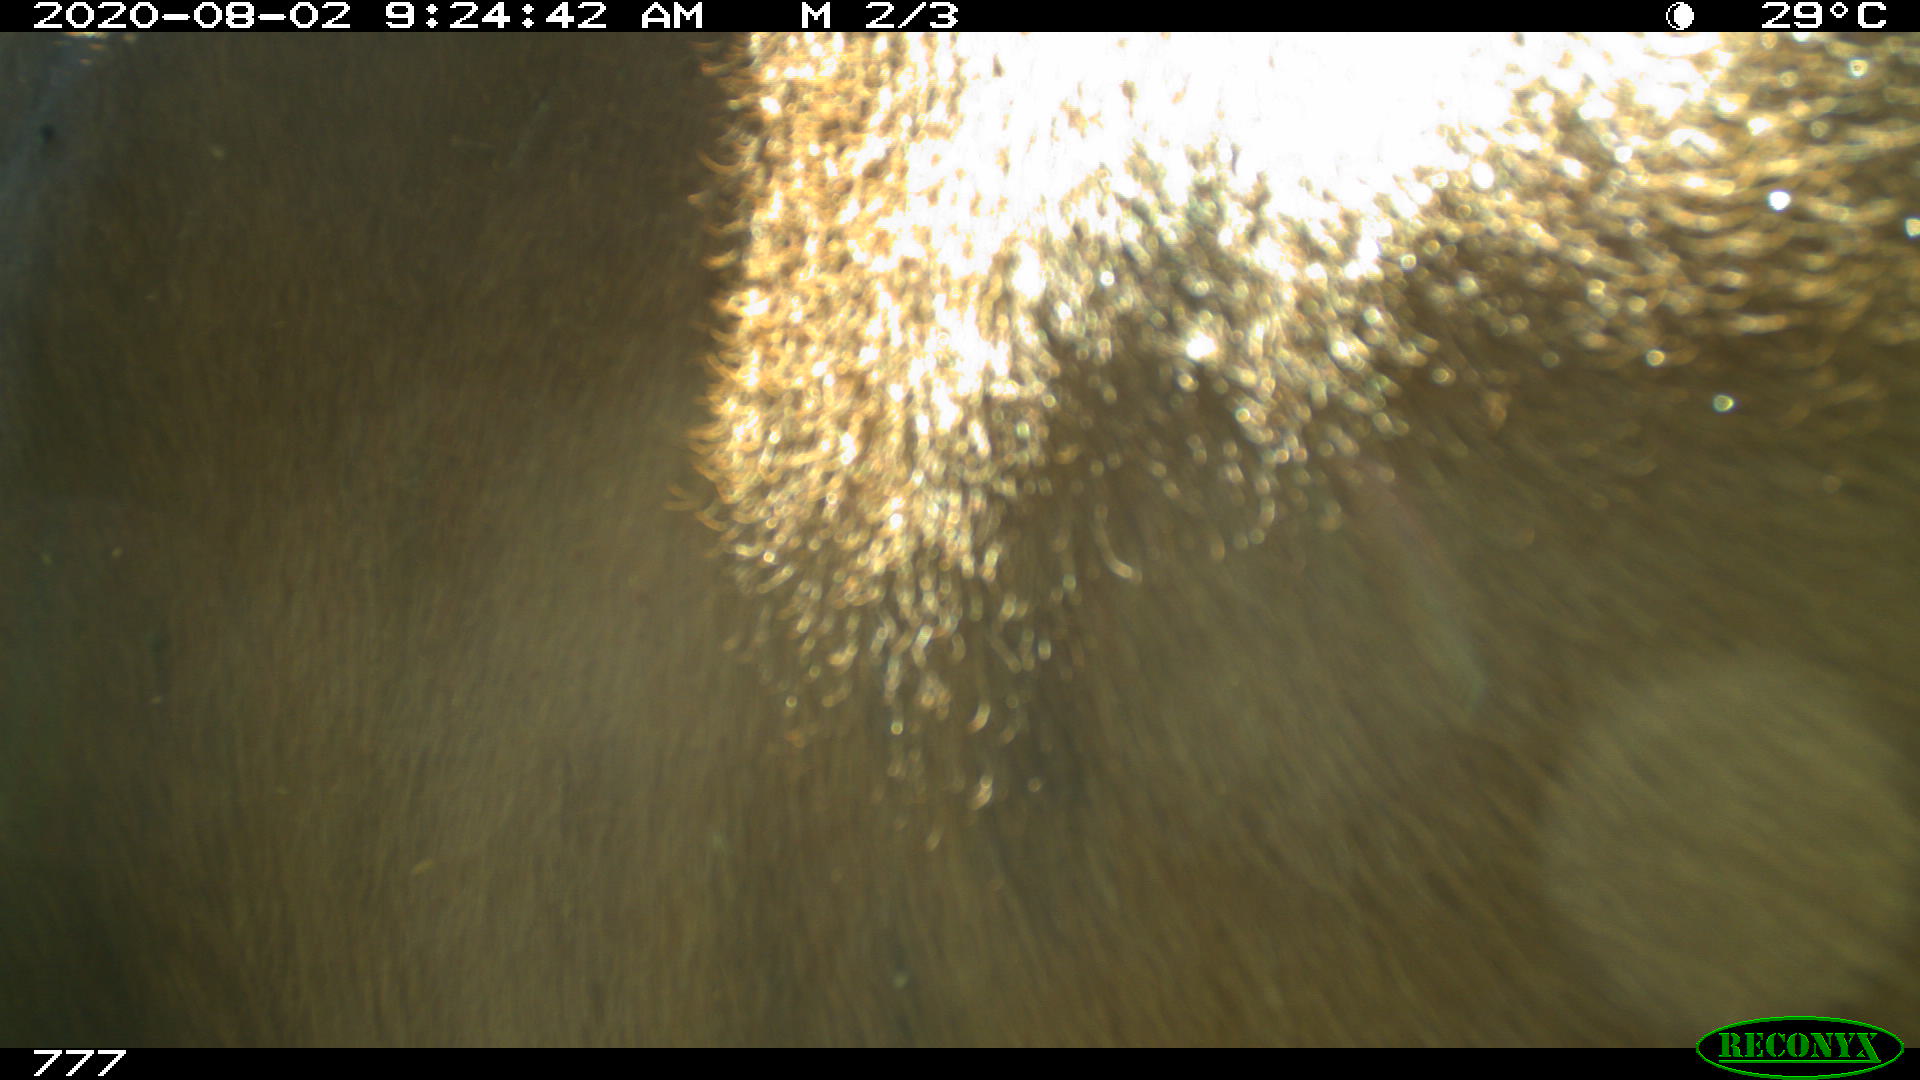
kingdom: Animalia
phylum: Chordata
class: Mammalia
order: Artiodactyla
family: Bovidae
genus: Bos
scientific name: Bos taurus
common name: Domesticated cattle
